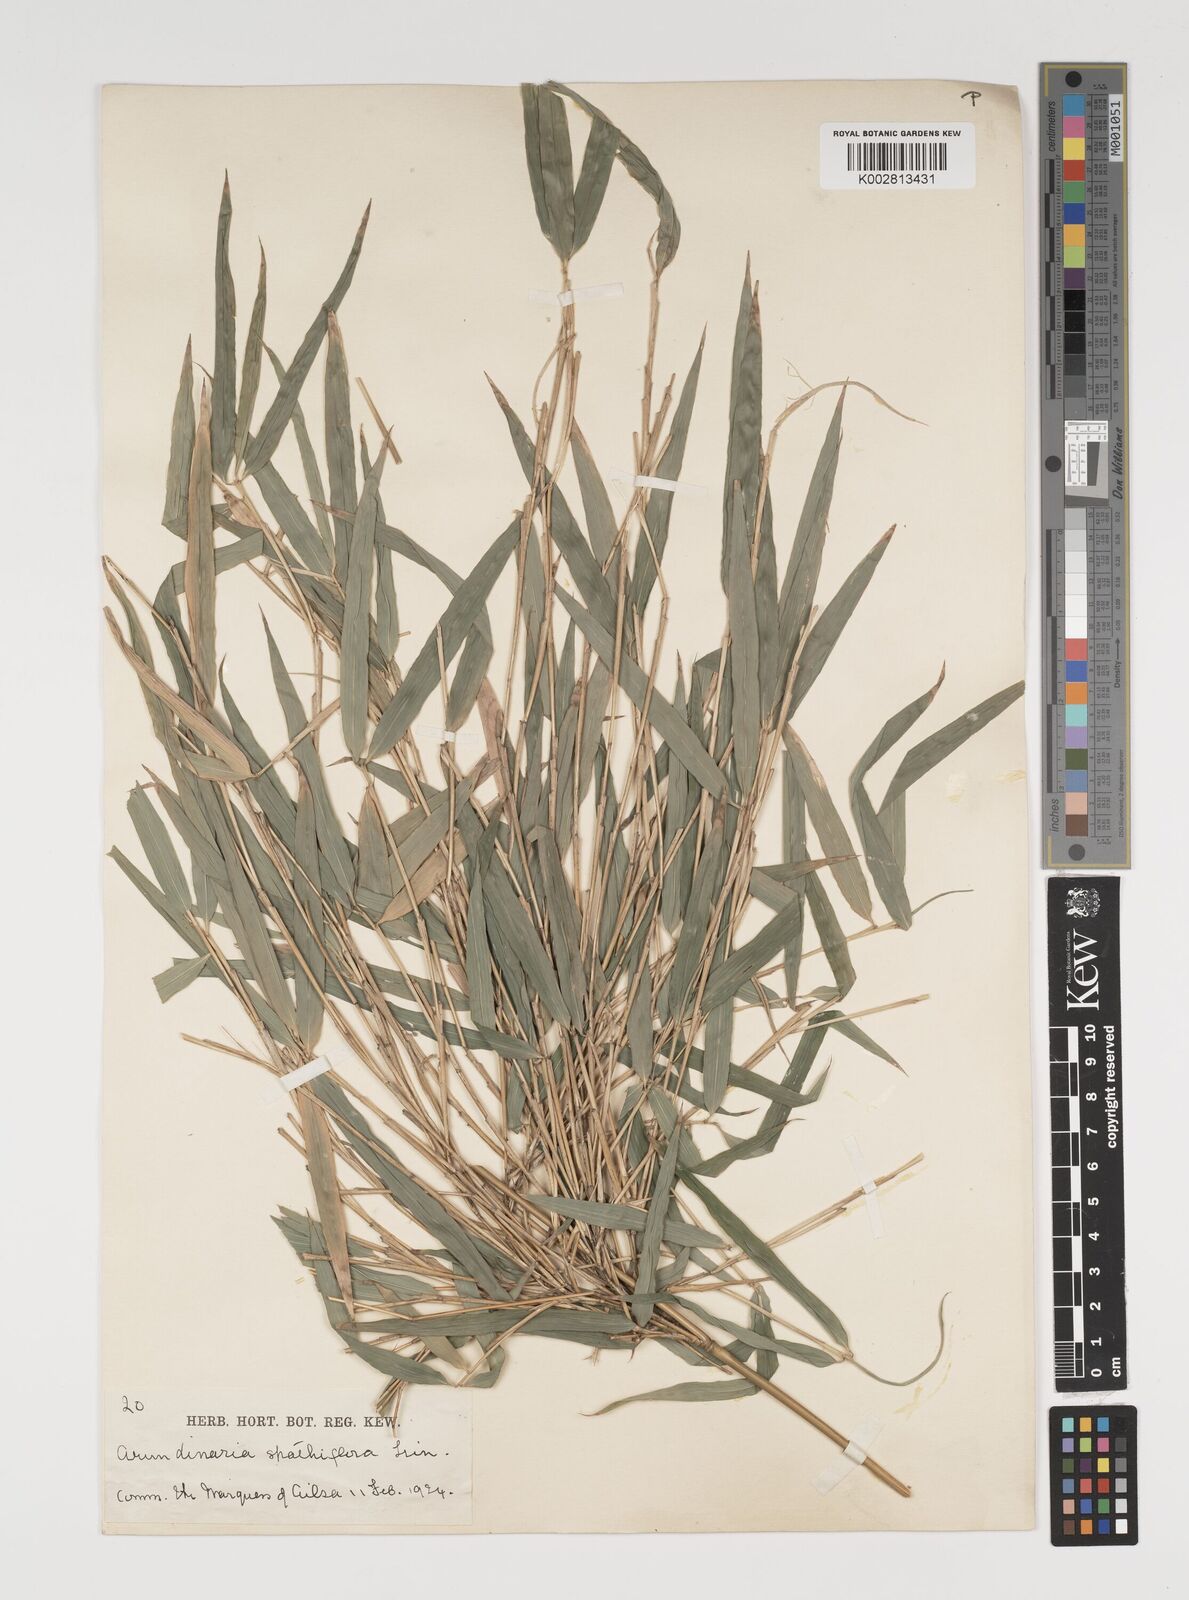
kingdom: Plantae
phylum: Tracheophyta
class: Liliopsida
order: Poales
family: Poaceae
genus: Thamnocalamus
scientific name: Thamnocalamus spathiflorus
